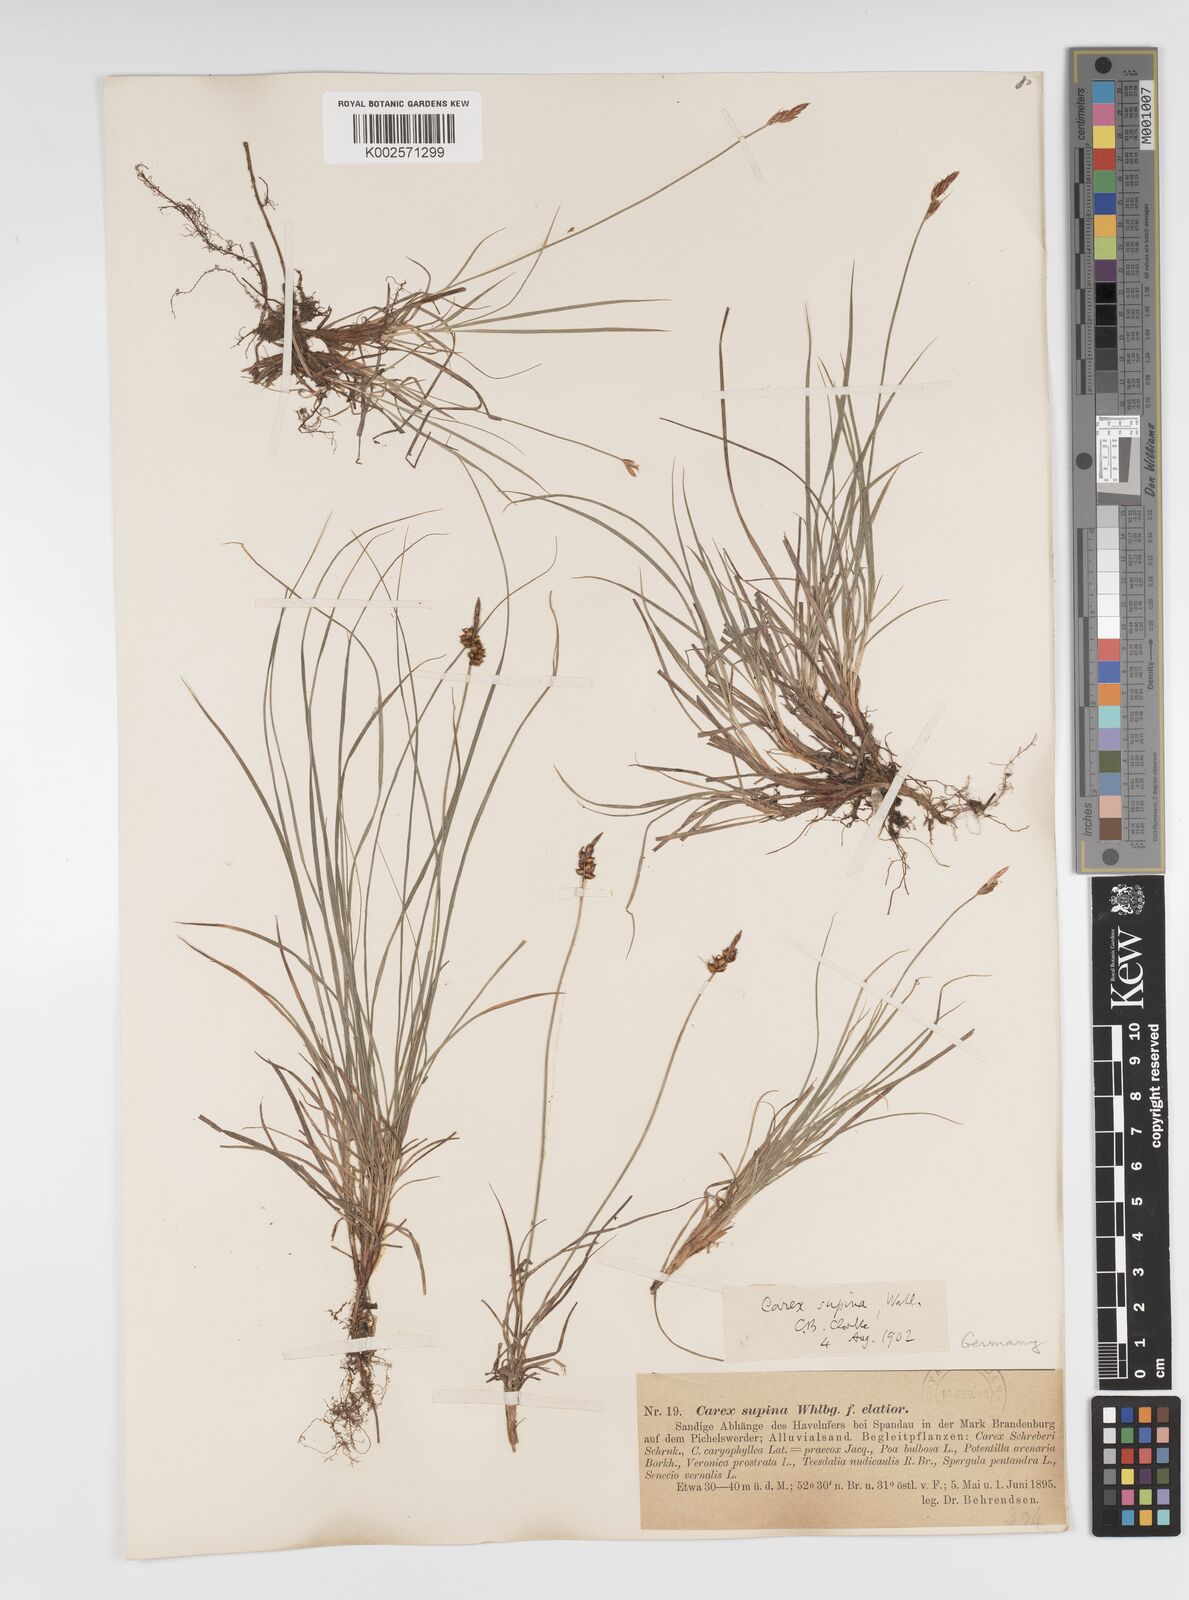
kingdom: Plantae
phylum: Tracheophyta
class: Liliopsida
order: Poales
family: Cyperaceae
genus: Carex
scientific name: Carex supina
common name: Lying-back sedge
